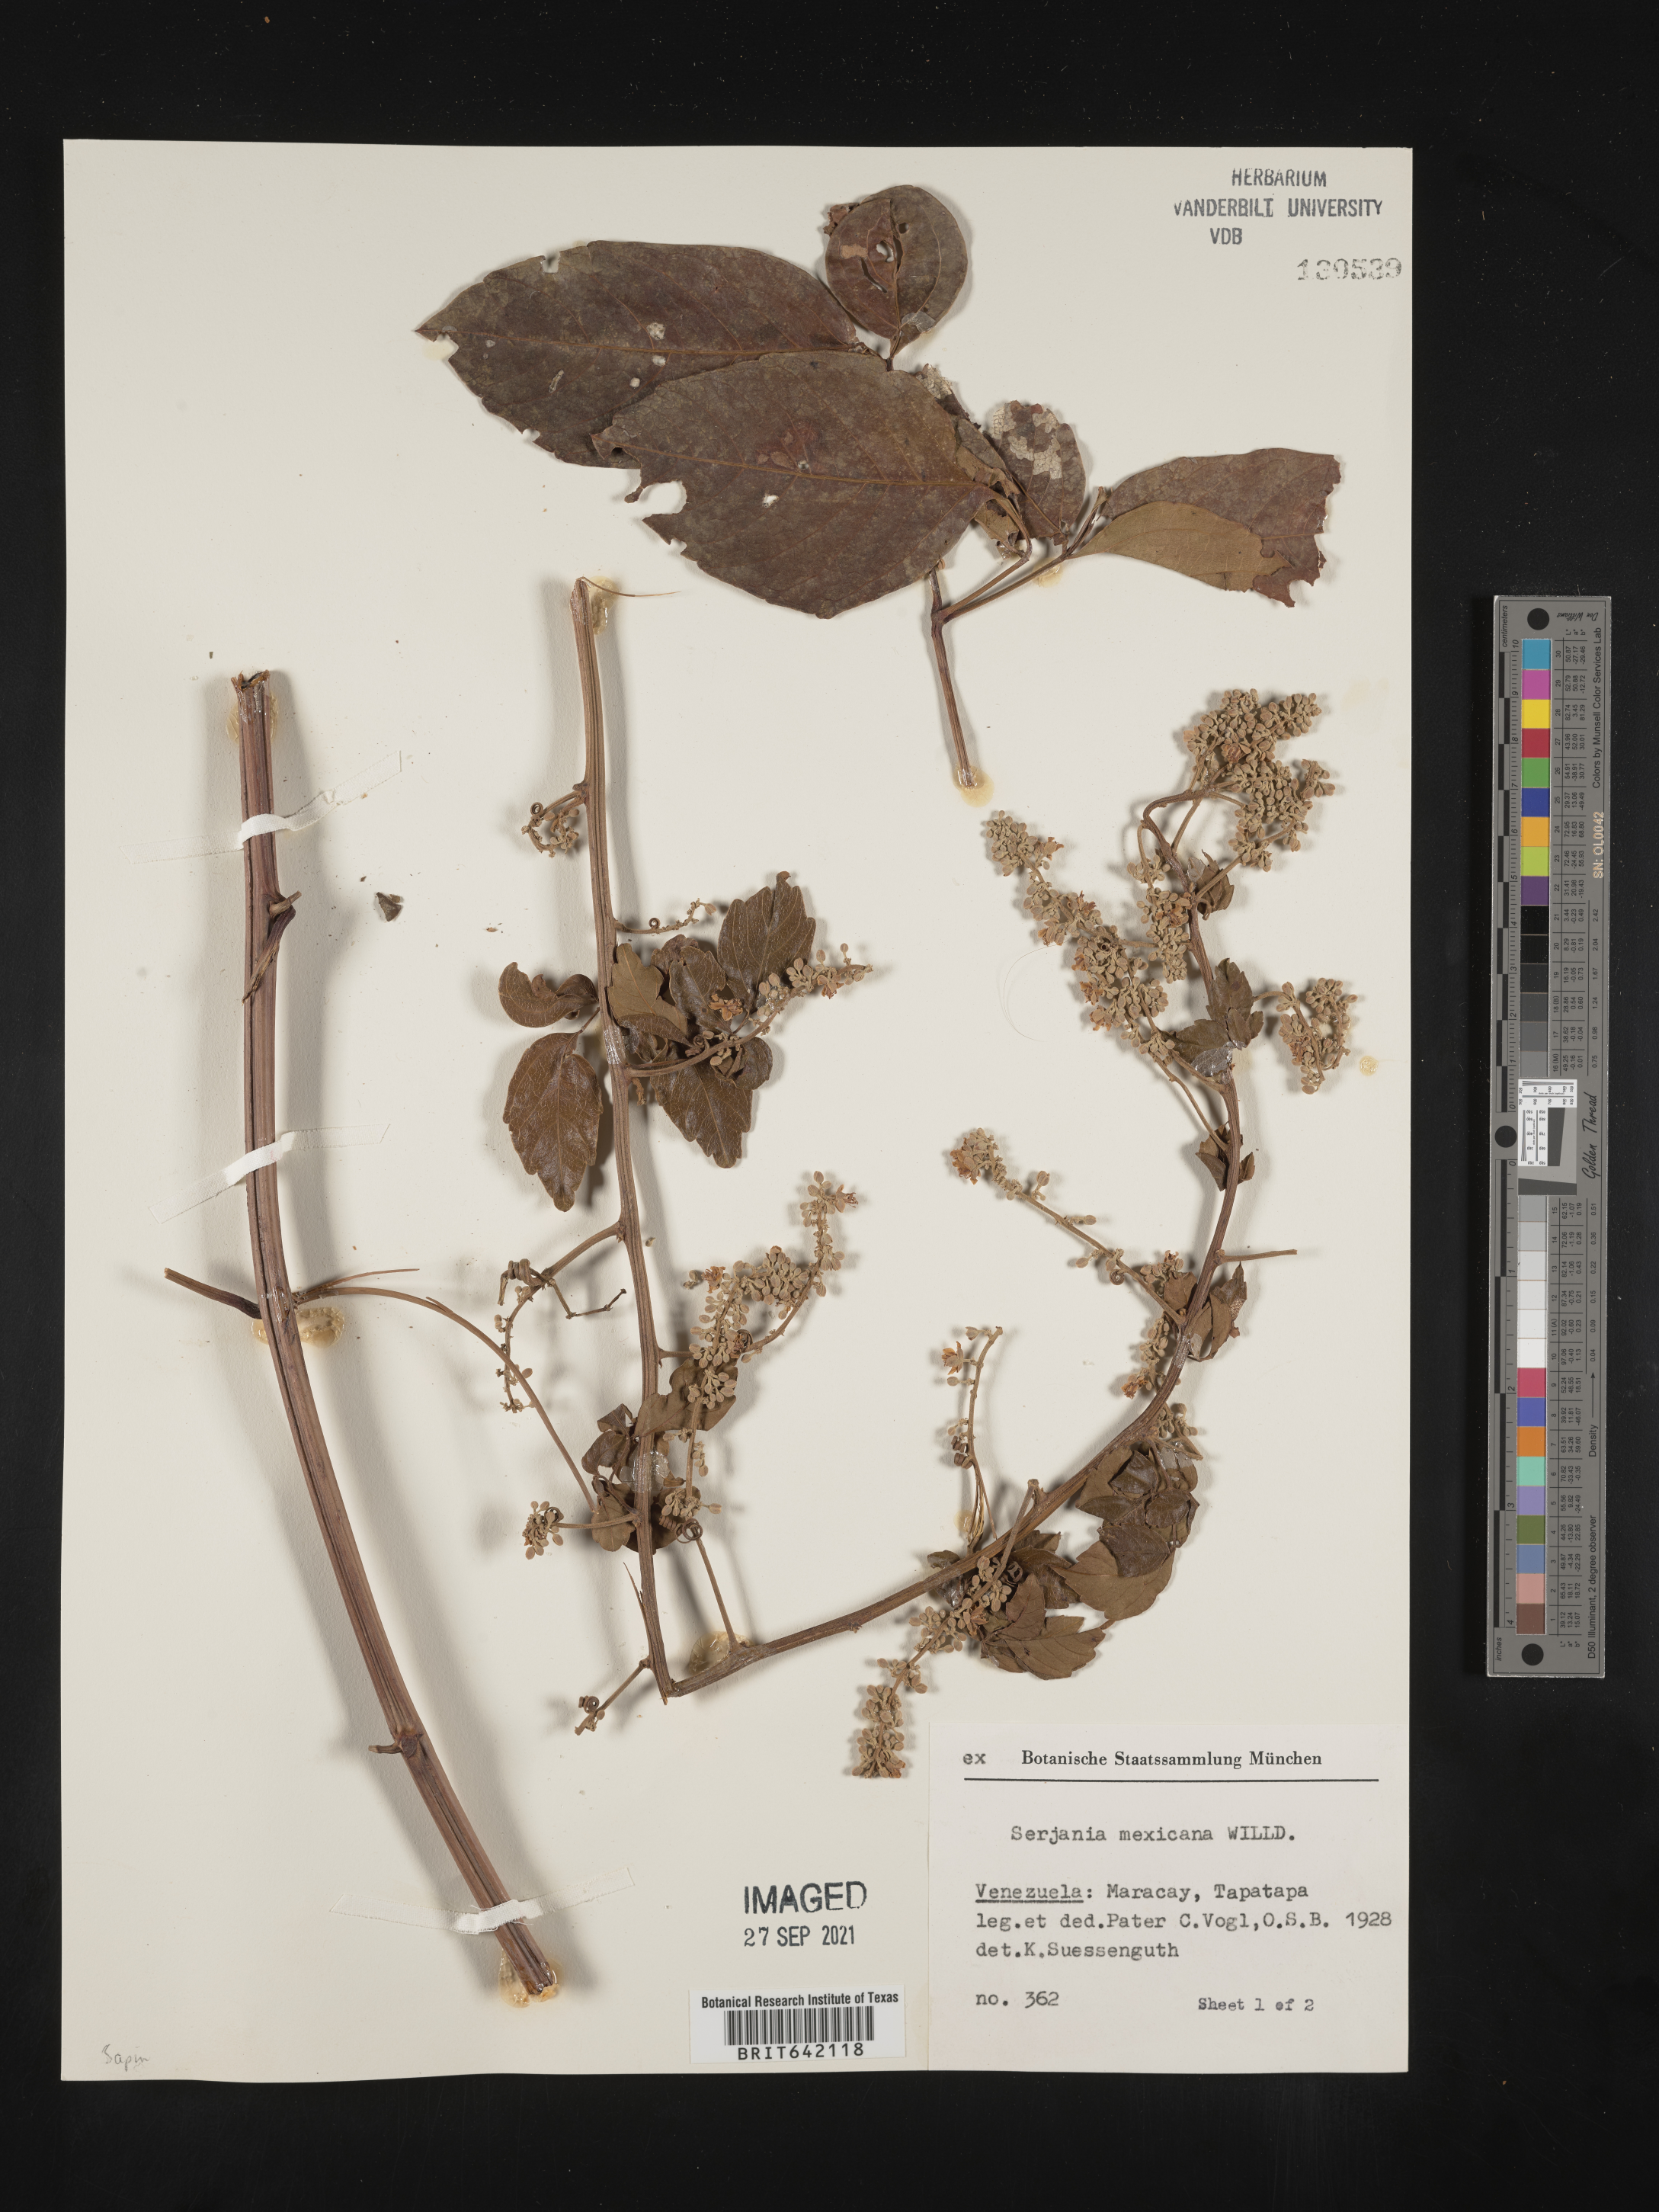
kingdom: Plantae
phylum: Tracheophyta
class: Magnoliopsida
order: Sapindales
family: Sapindaceae
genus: Serjania
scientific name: Serjania
